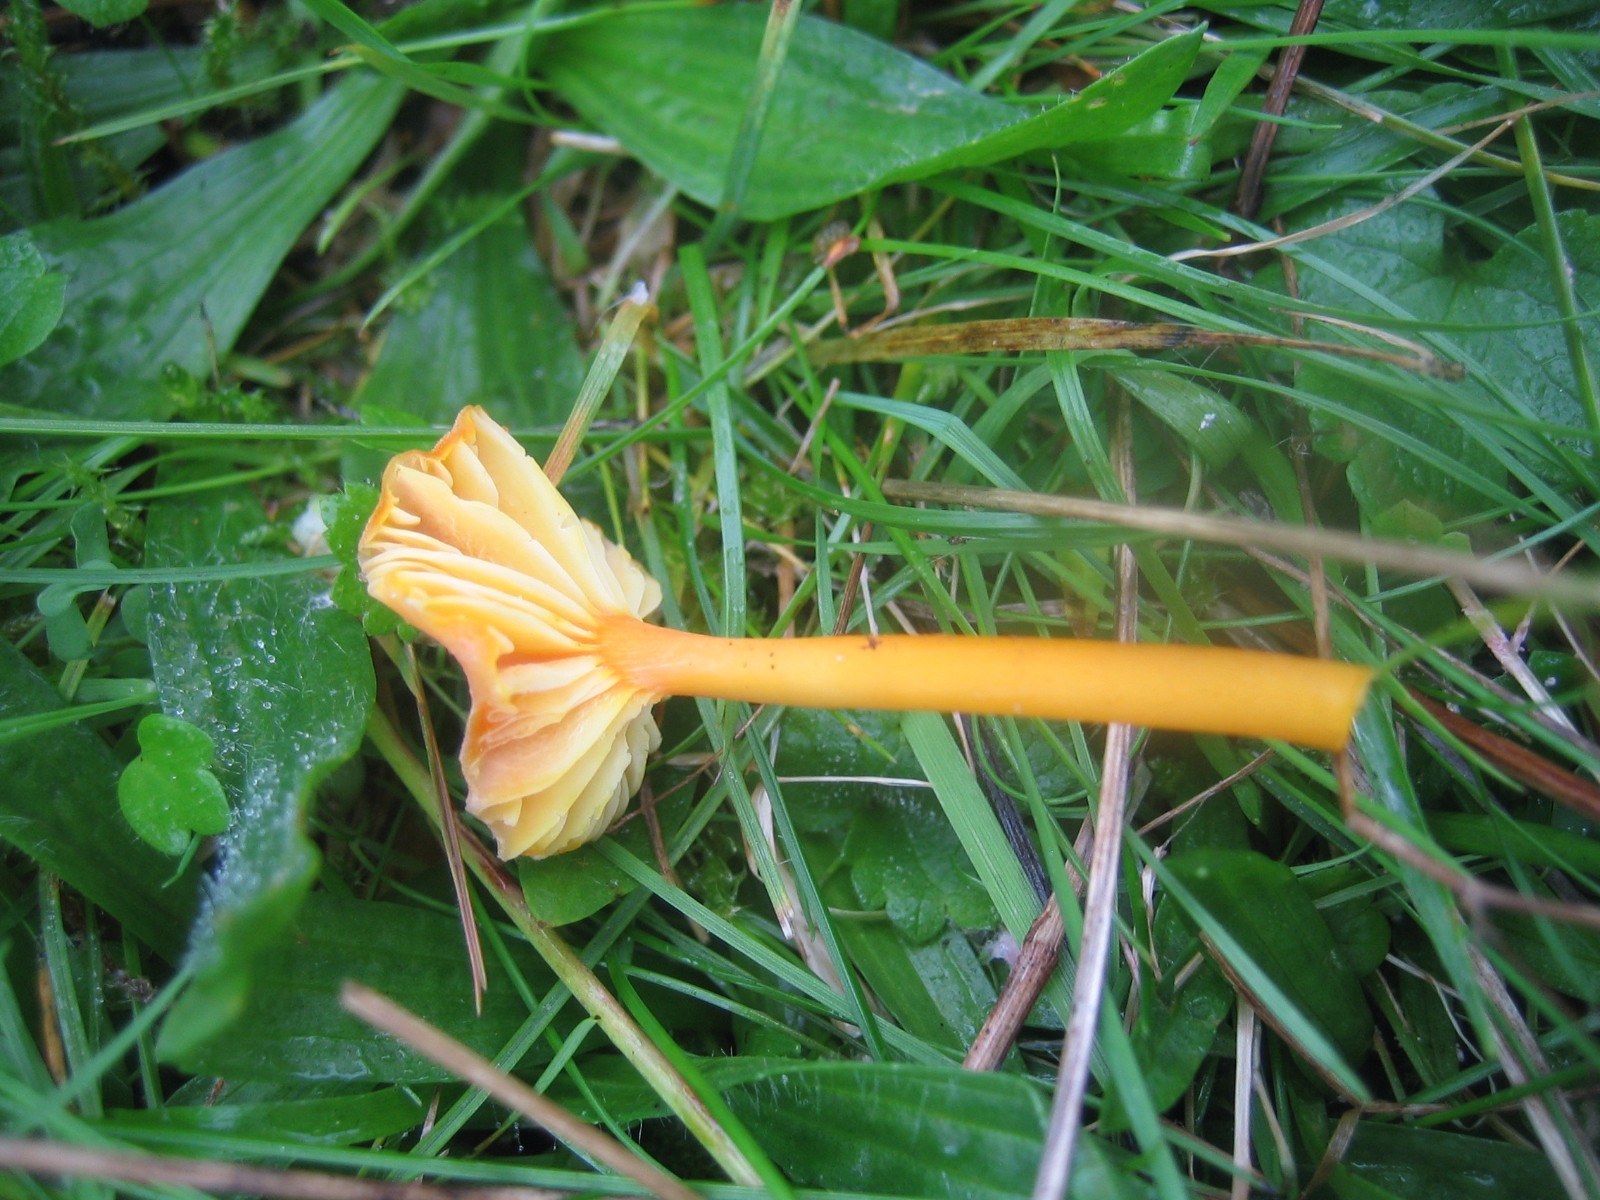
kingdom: Fungi
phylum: Basidiomycota
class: Agaricomycetes
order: Agaricales
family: Hygrophoraceae
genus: Hygrocybe
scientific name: Hygrocybe cantharellus
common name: kantarel-vokshat
